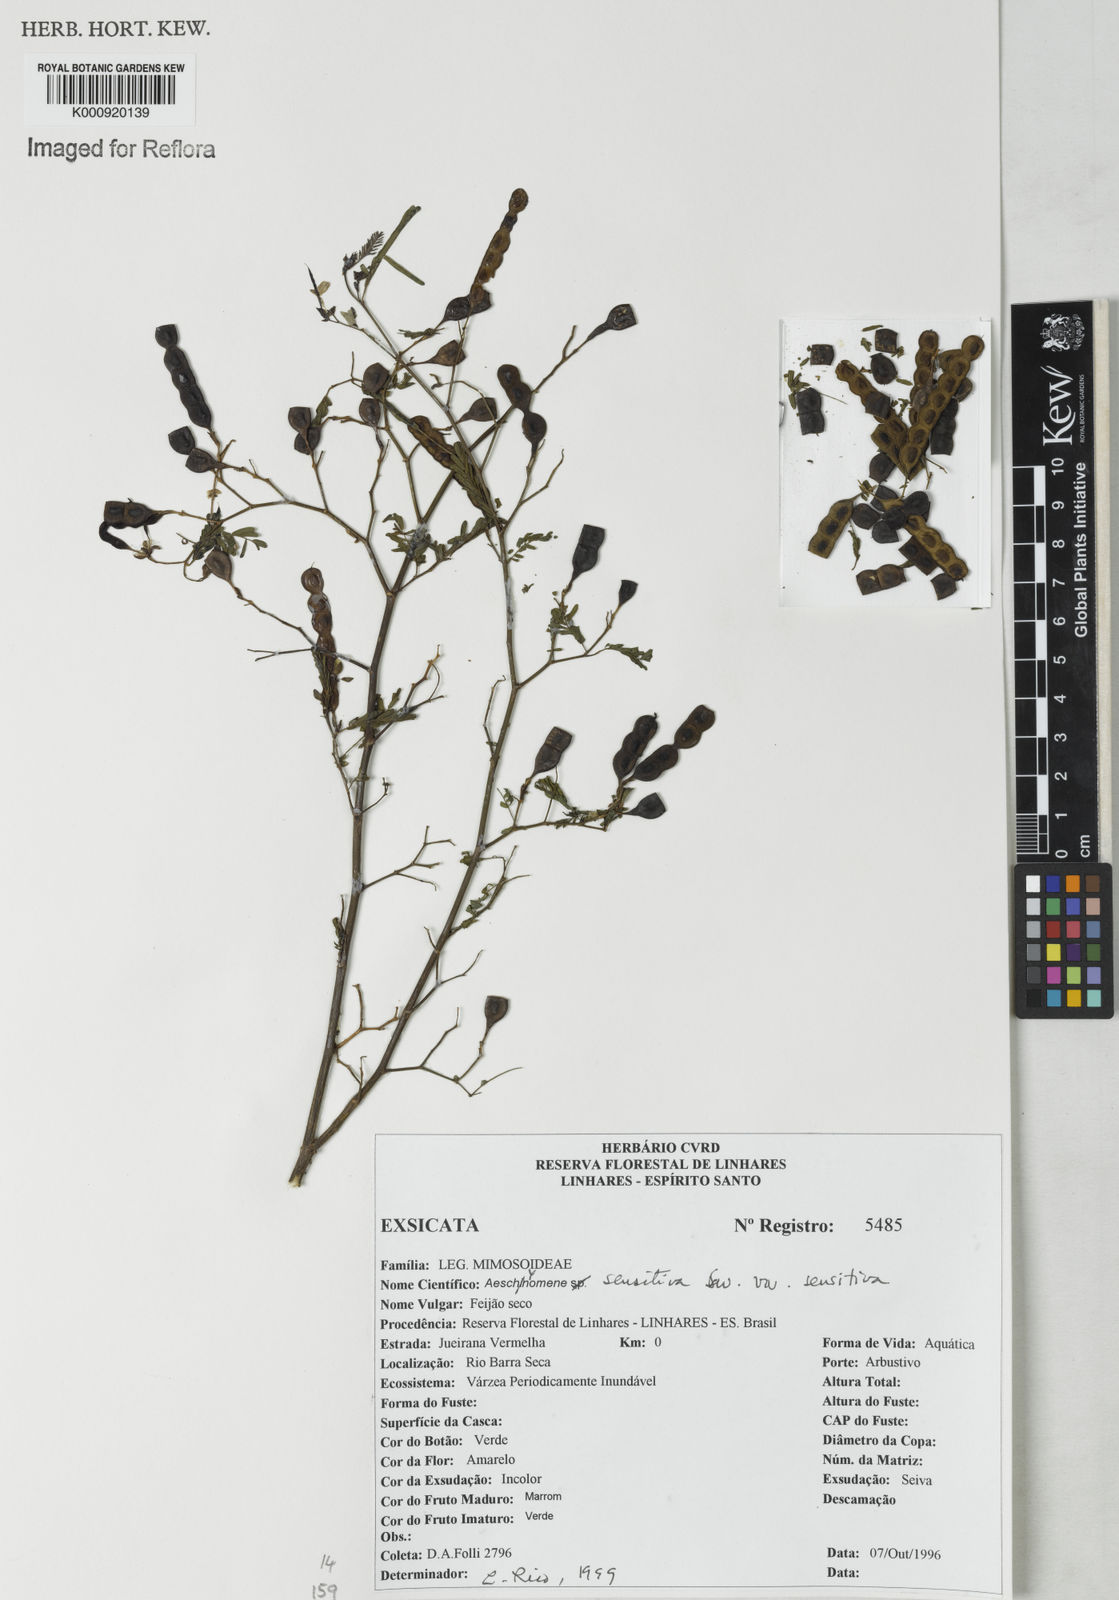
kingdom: Plantae
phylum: Tracheophyta
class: Magnoliopsida
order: Fabales
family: Fabaceae
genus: Aeschynomene
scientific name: Aeschynomene sensitiva
